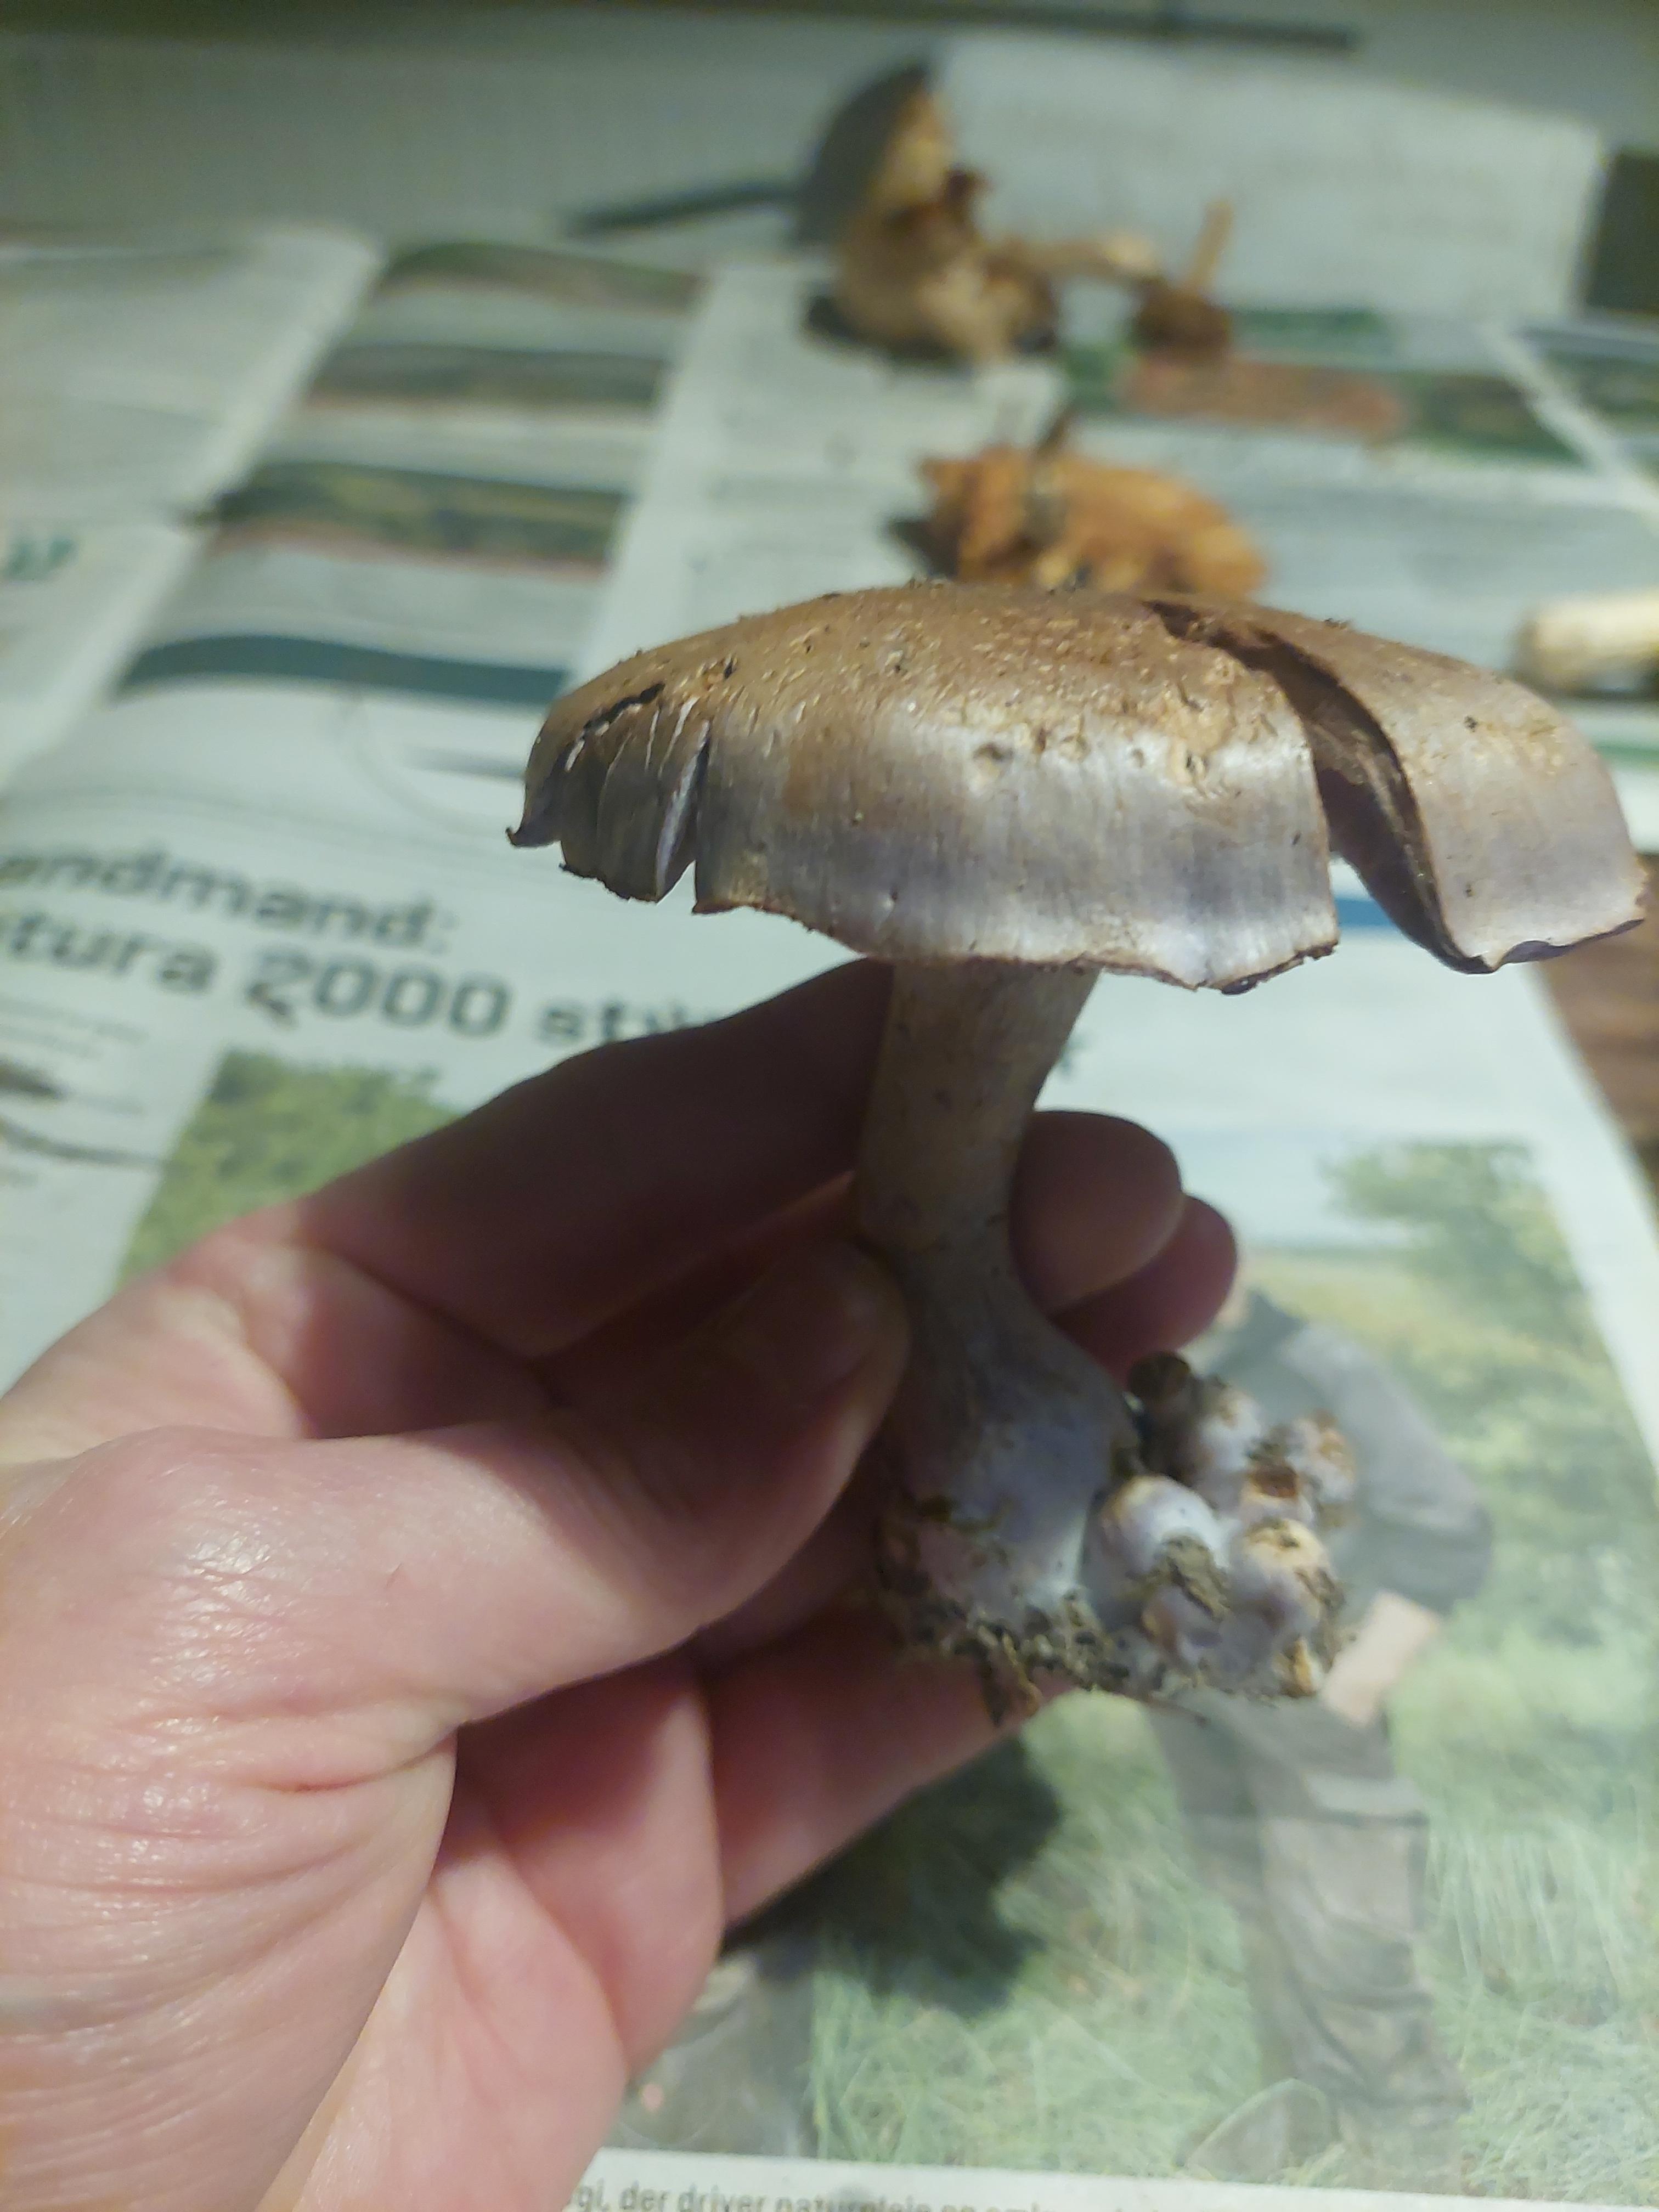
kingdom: Fungi
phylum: Basidiomycota
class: Agaricomycetes
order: Agaricales
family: Cortinariaceae
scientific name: Cortinariaceae
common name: slørhatfamilien
